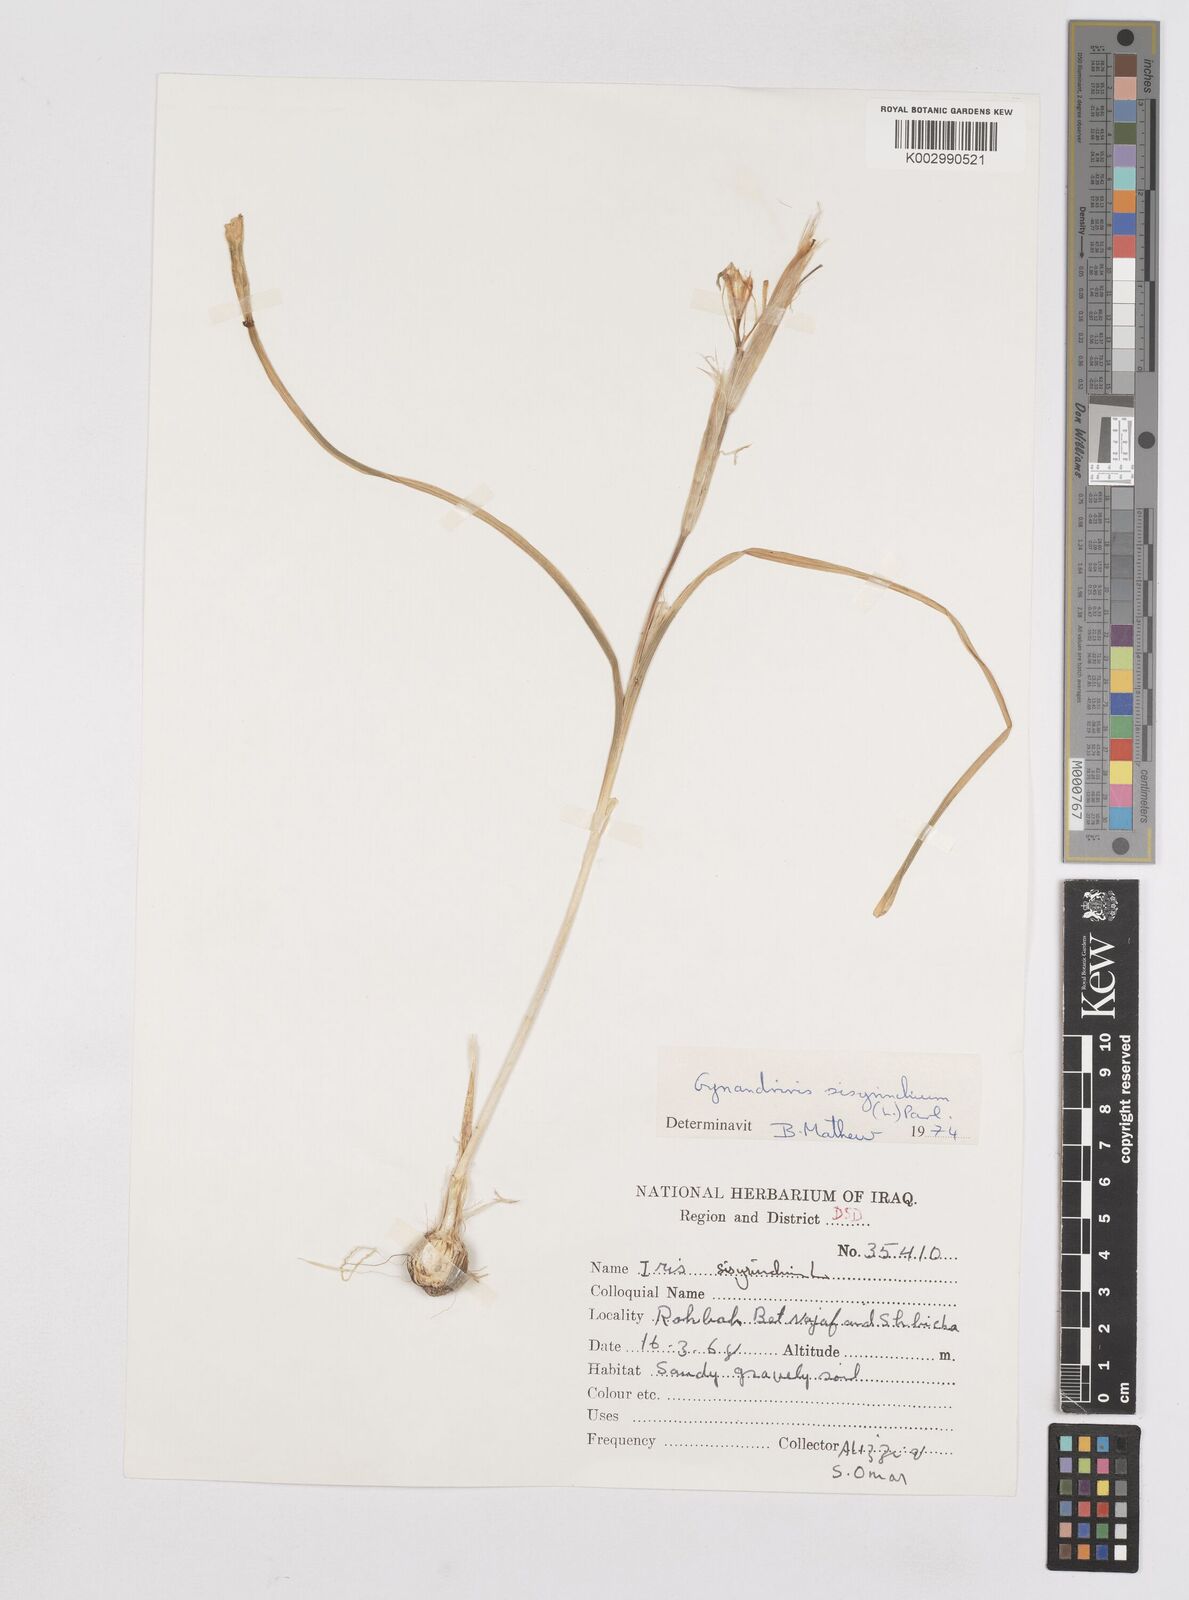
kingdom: Plantae
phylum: Tracheophyta
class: Liliopsida
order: Asparagales
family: Iridaceae
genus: Moraea
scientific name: Moraea sisyrinchium
